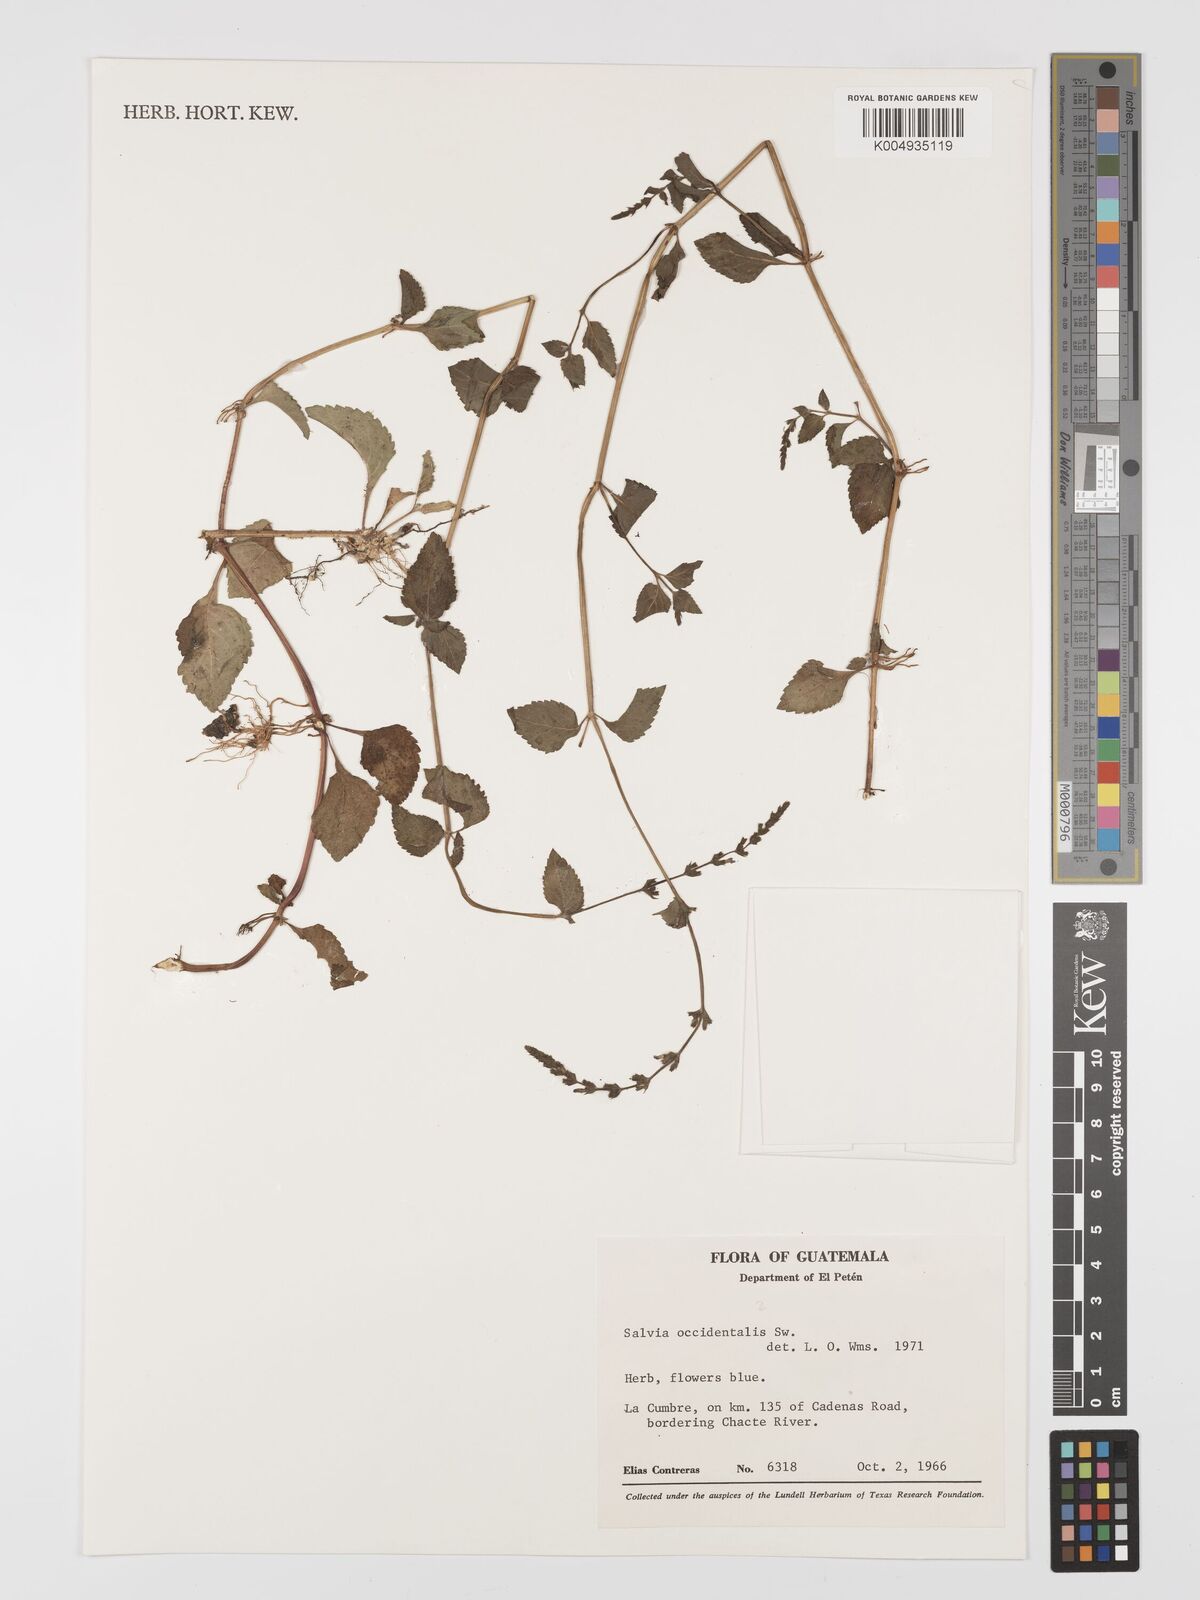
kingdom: Plantae
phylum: Tracheophyta
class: Magnoliopsida
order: Lamiales
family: Lamiaceae
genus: Salvia
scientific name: Salvia occidentalis
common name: West indian sage
